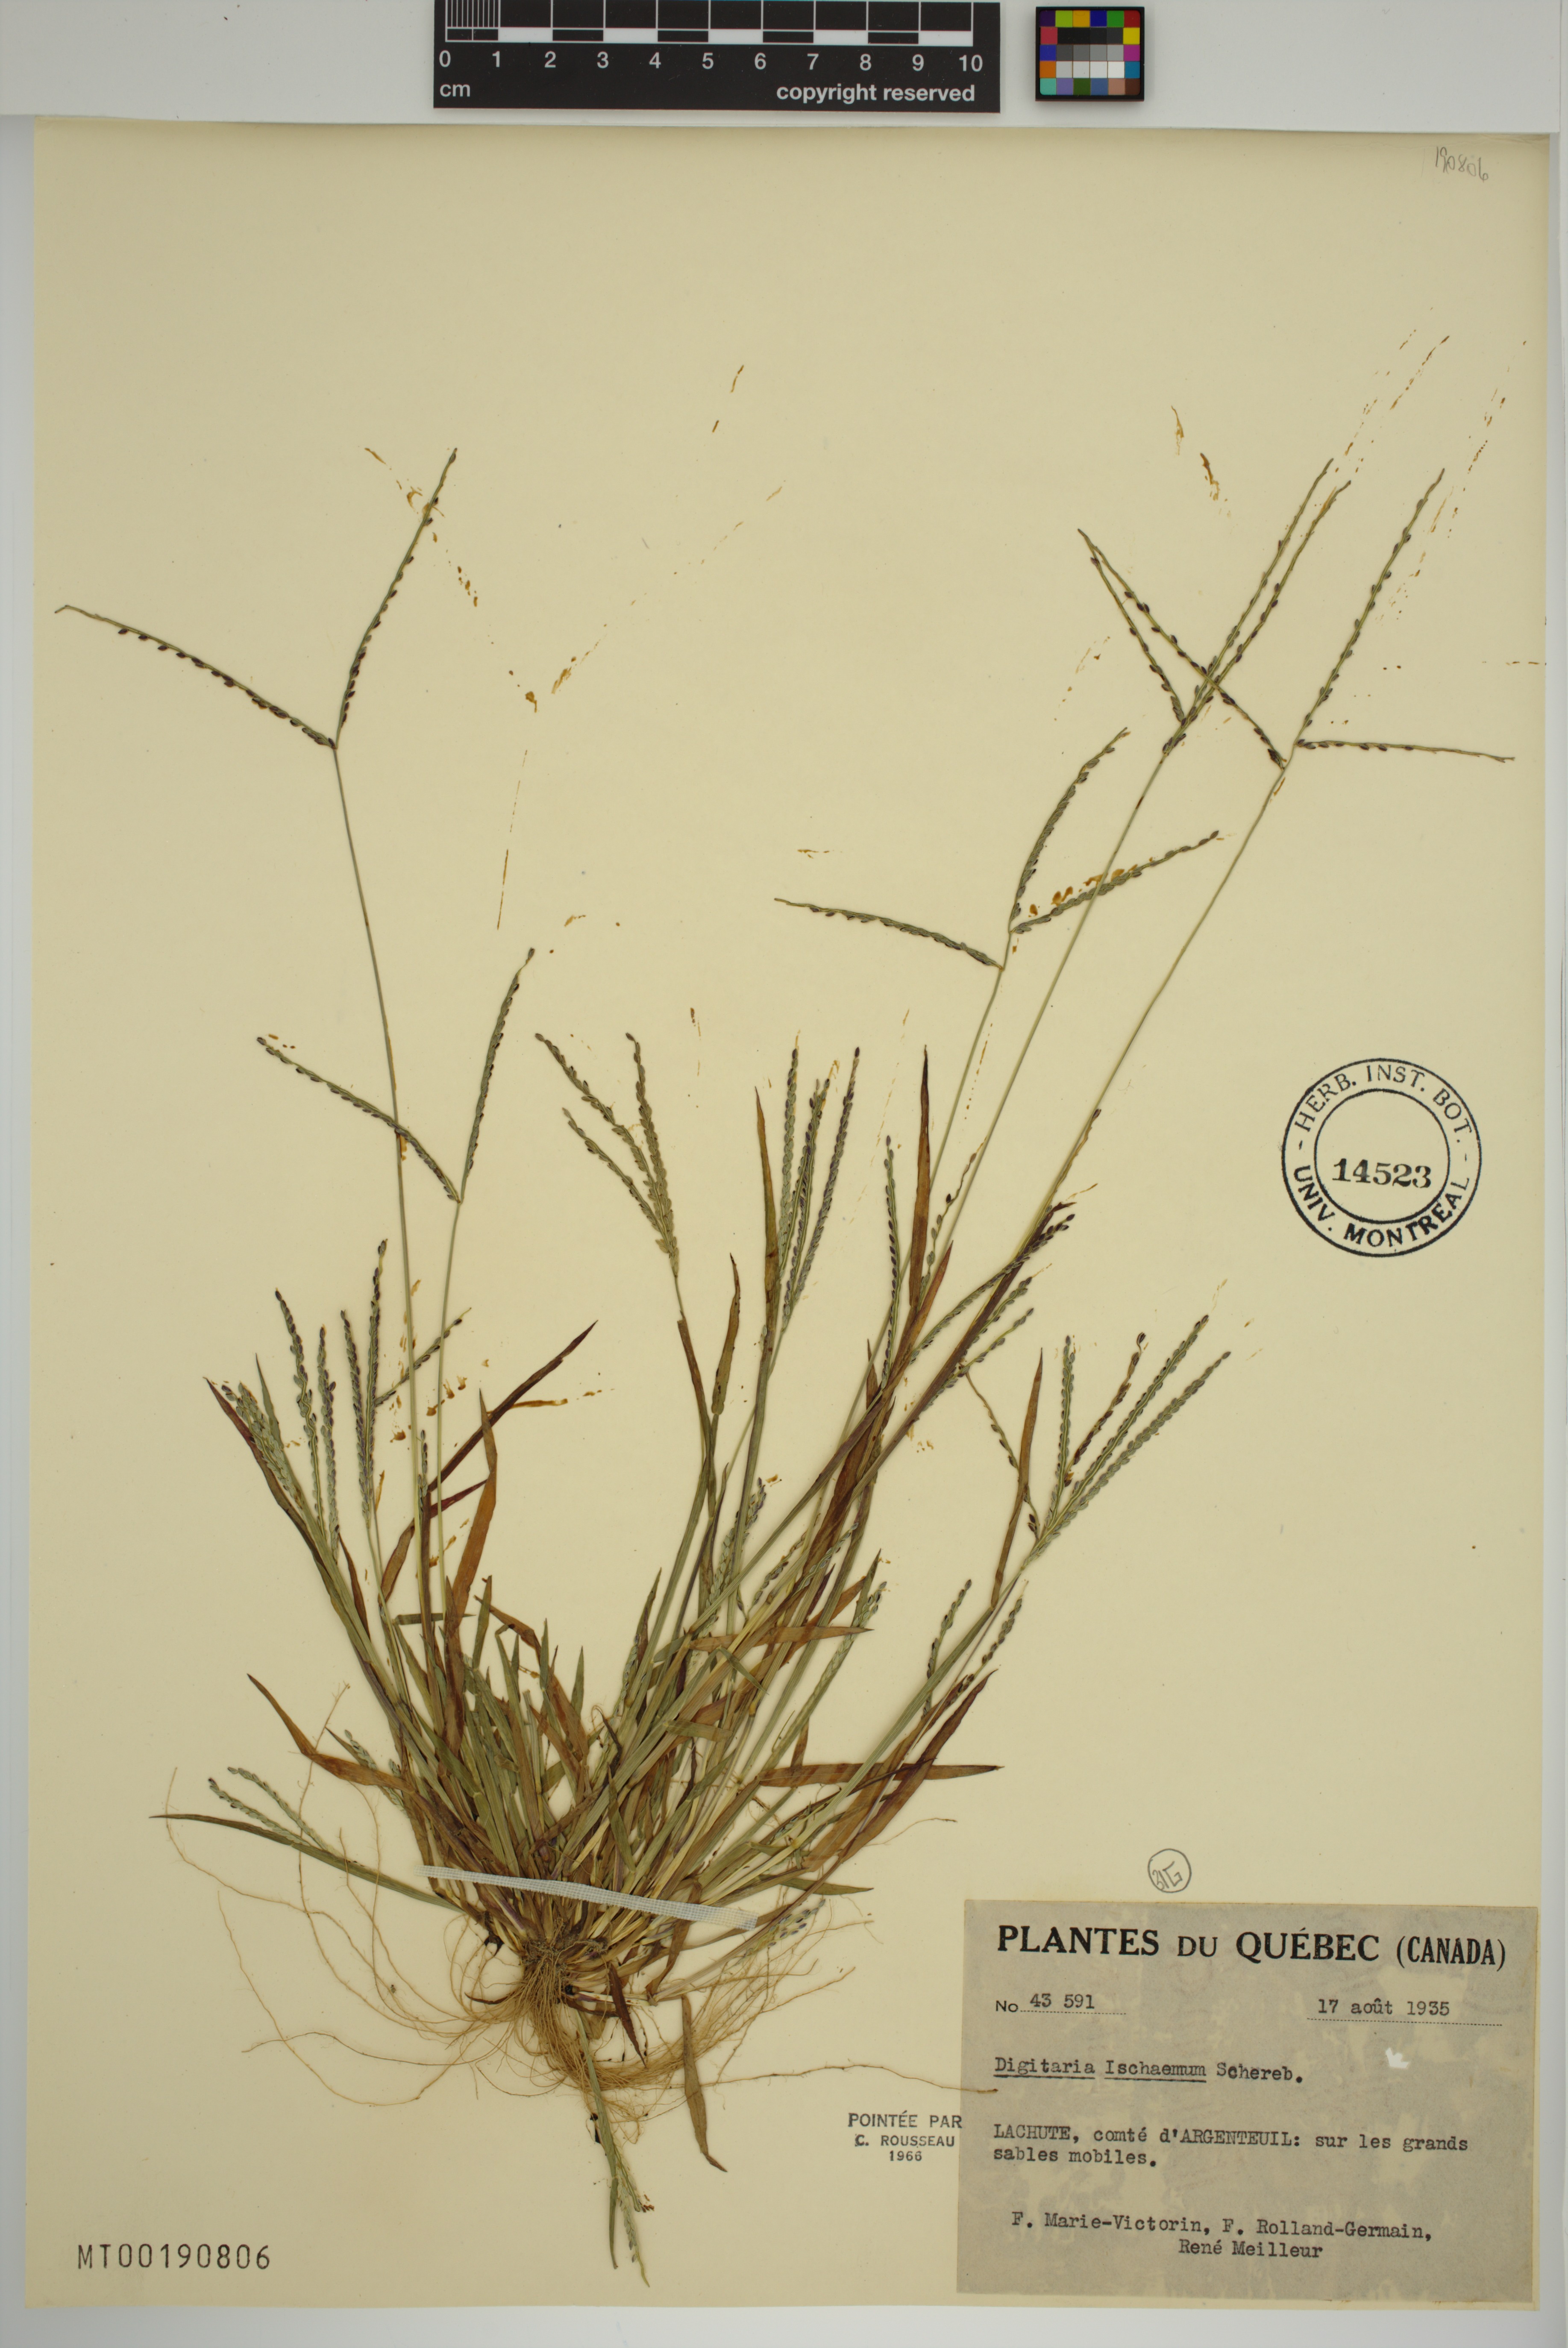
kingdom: Plantae
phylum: Tracheophyta
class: Liliopsida
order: Poales
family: Poaceae
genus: Digitaria
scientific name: Digitaria ischaemum
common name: Smooth crabgrass
